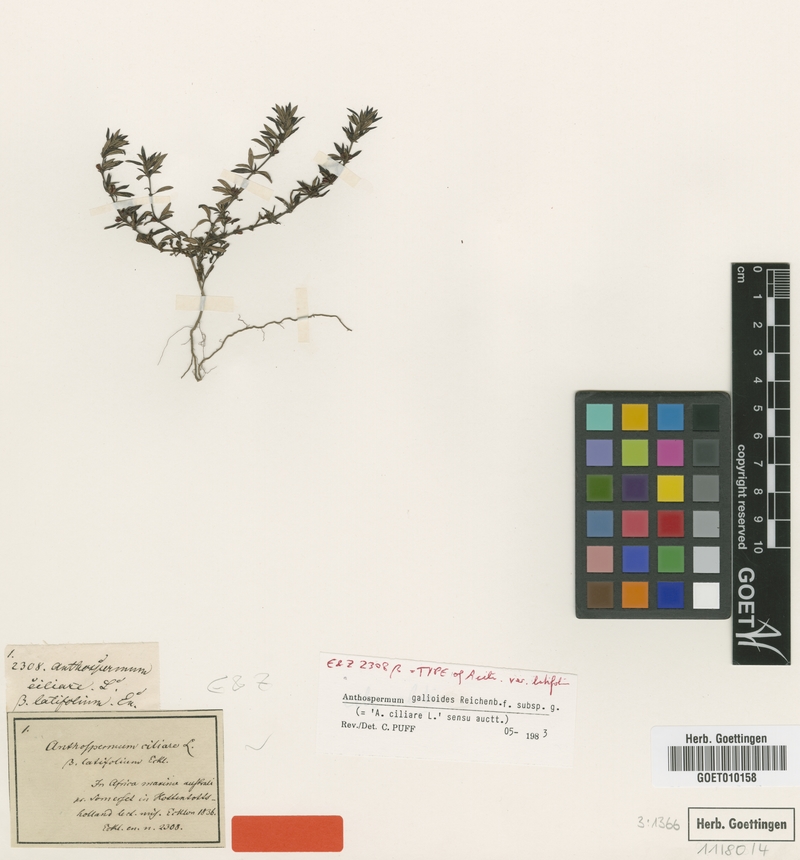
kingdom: Plantae
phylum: Tracheophyta
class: Magnoliopsida
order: Gentianales
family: Rubiaceae
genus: Anthospermum
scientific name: Anthospermum galioides
